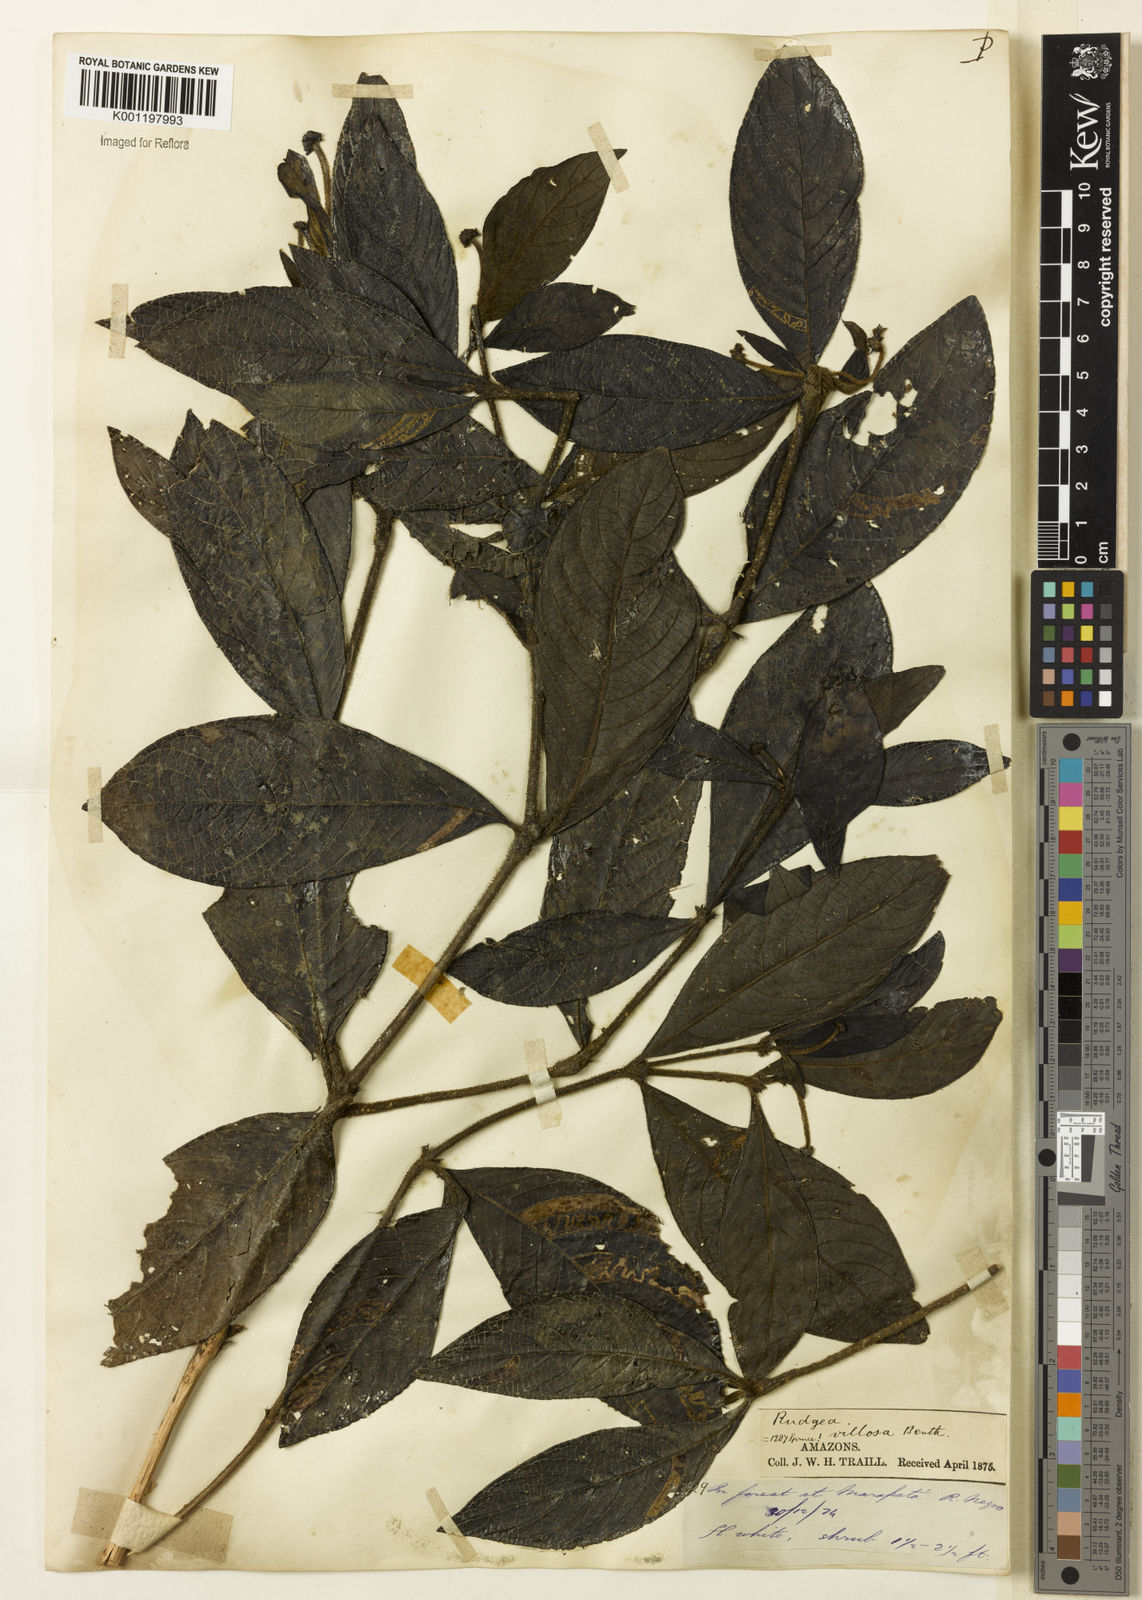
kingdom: Plantae
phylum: Tracheophyta
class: Magnoliopsida
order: Gentianales
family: Rubiaceae
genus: Psychotria
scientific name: Psychotria
